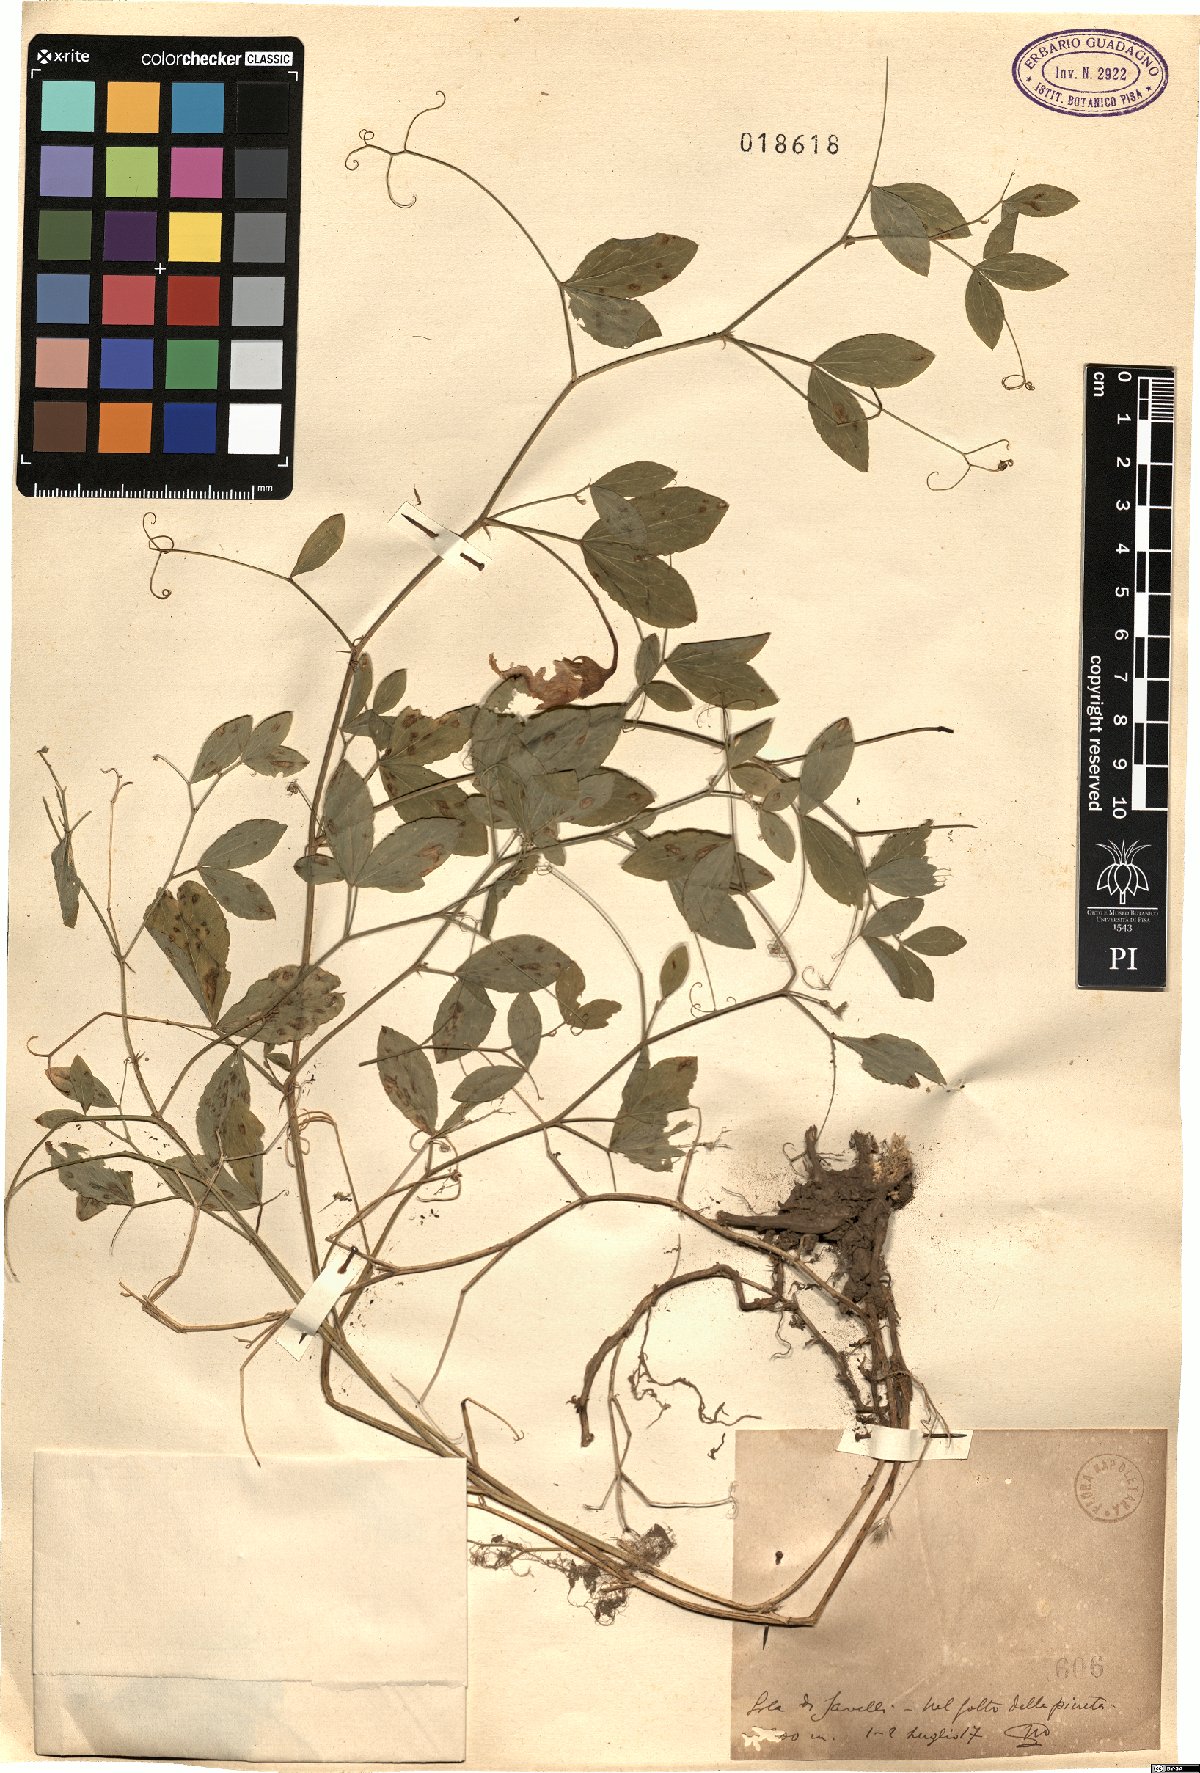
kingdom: Plantae
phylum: Tracheophyta
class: Magnoliopsida
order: Fabales
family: Fabaceae
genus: Lathyrus
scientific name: Lathyrus
